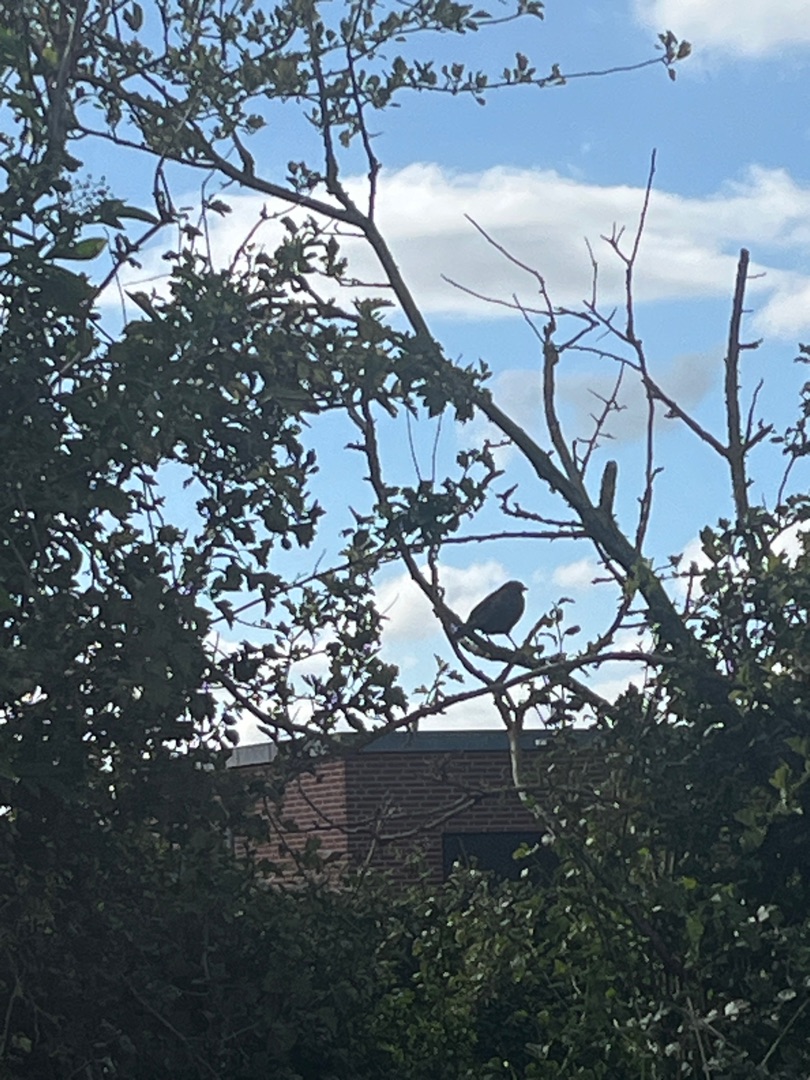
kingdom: Animalia
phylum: Chordata
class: Aves
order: Passeriformes
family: Turdidae
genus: Turdus
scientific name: Turdus merula
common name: Solsort
